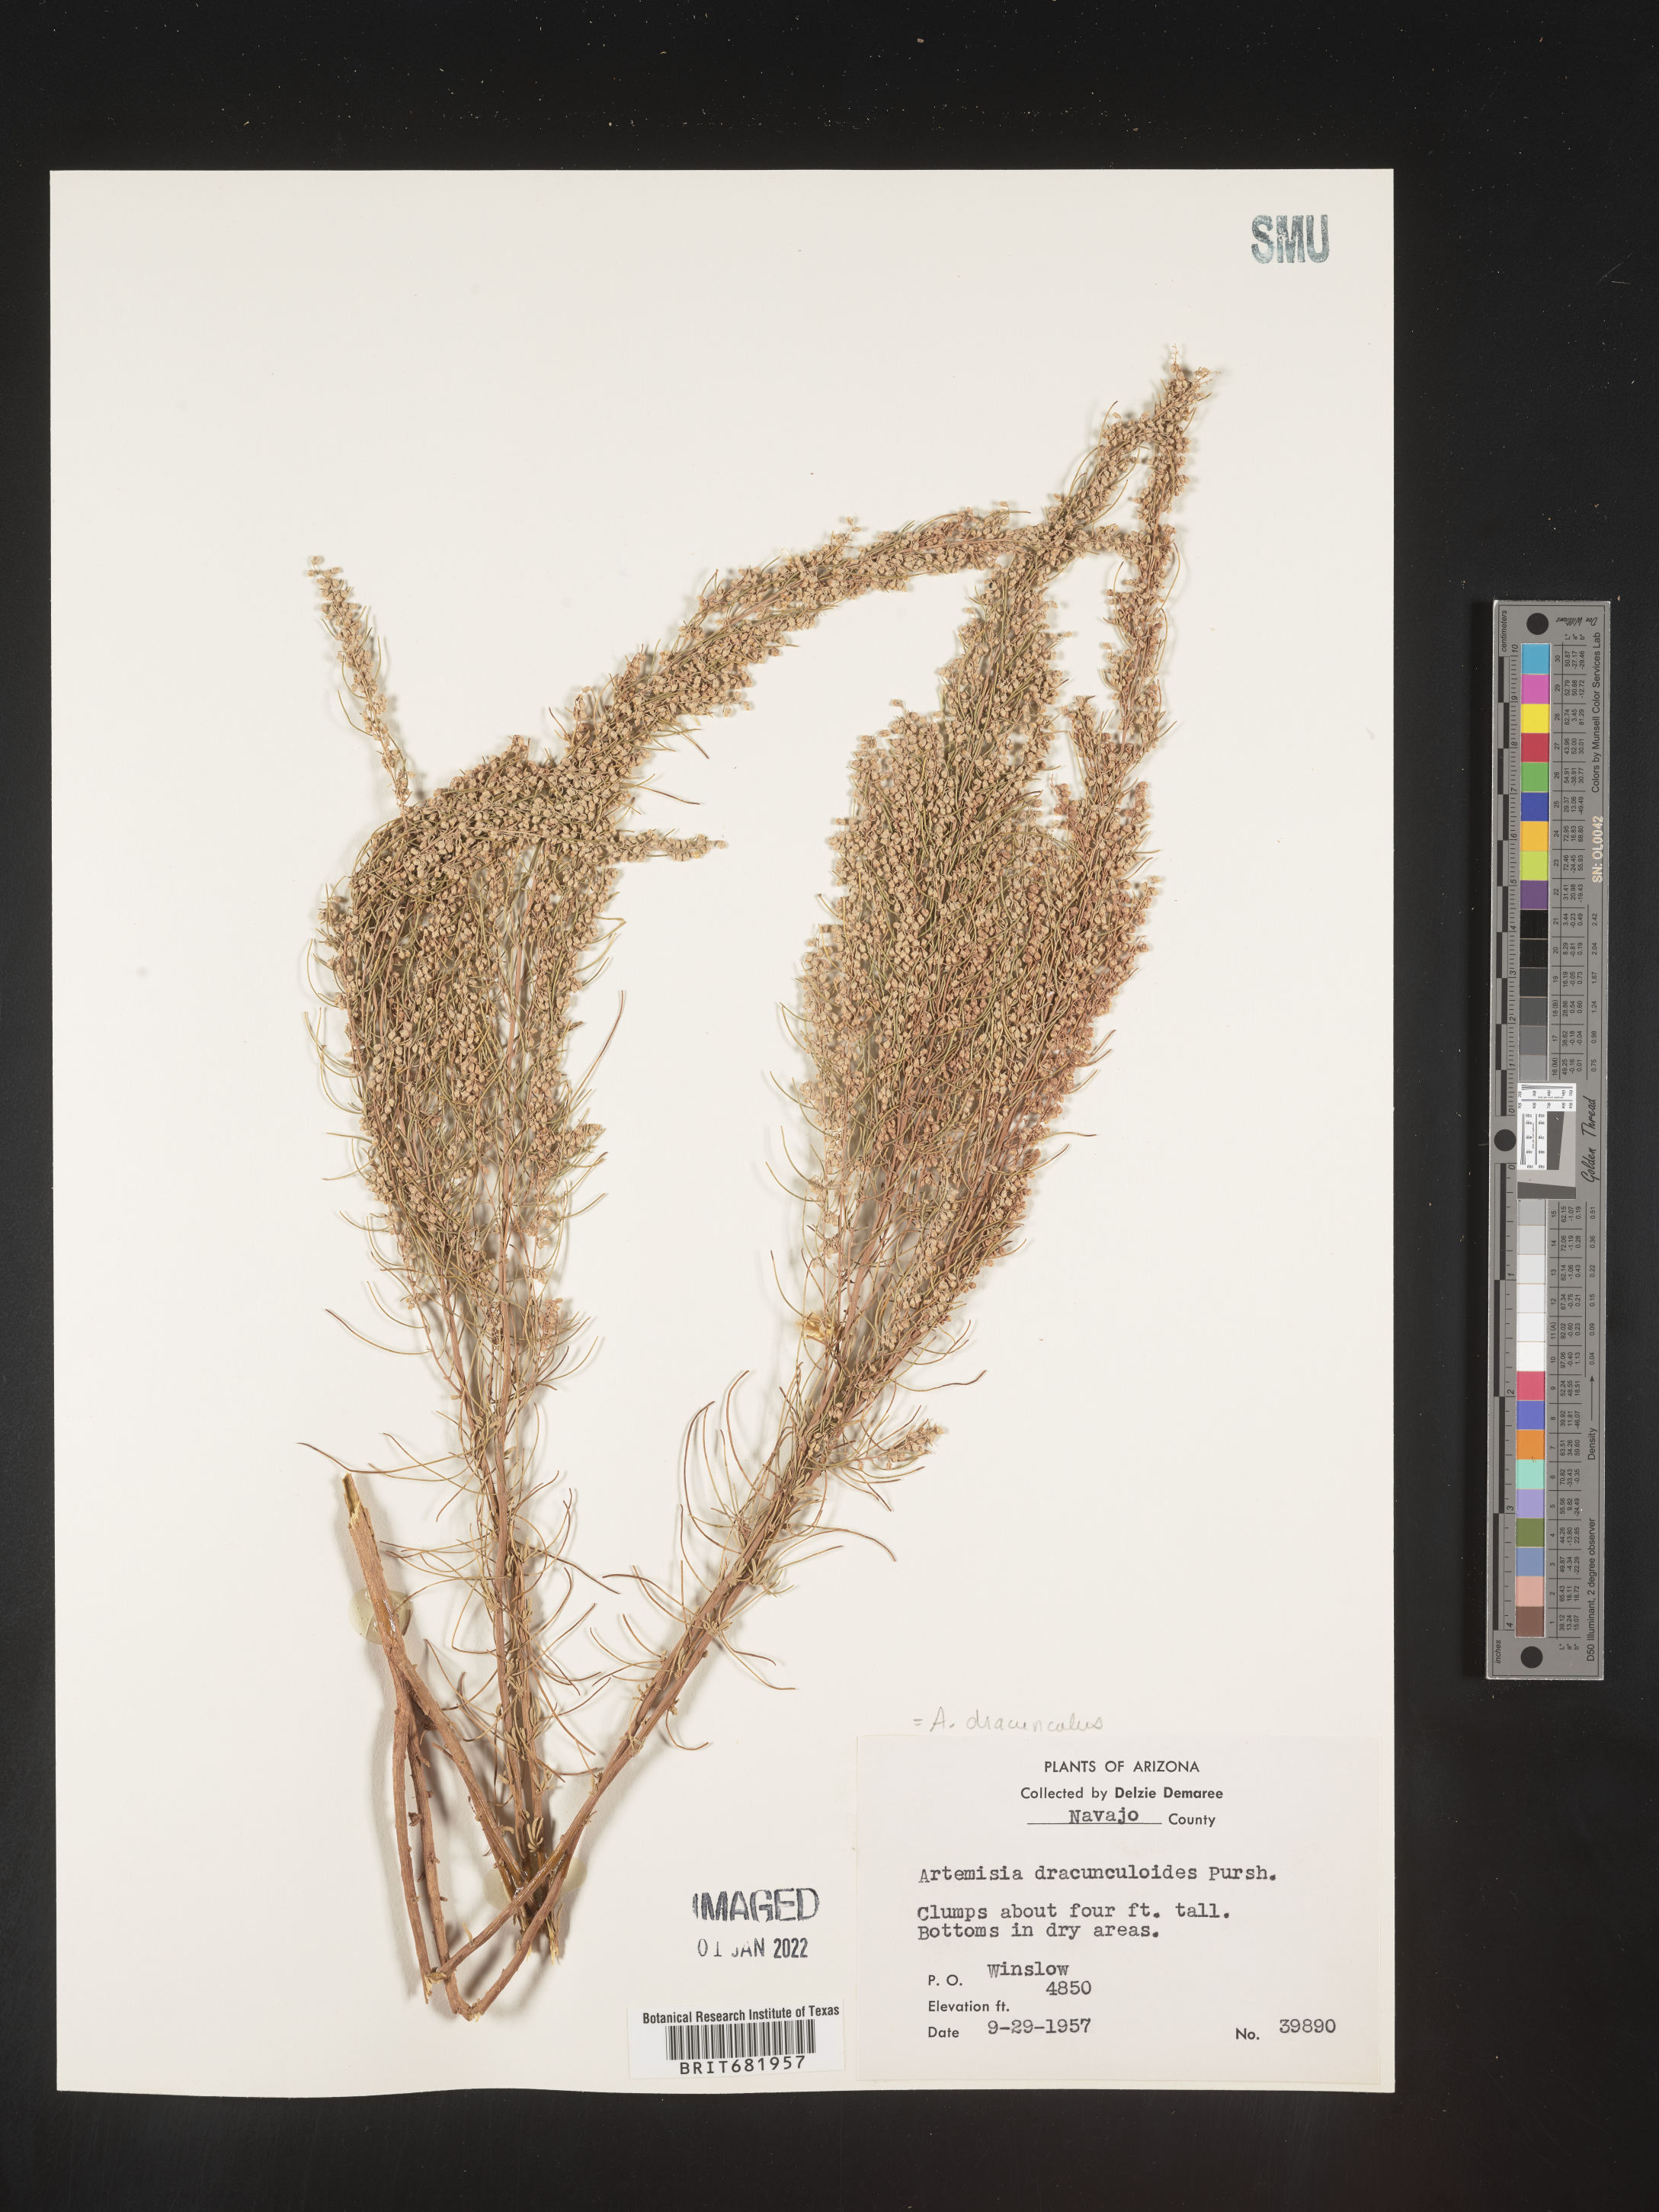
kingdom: Plantae
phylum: Tracheophyta
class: Magnoliopsida
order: Asterales
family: Asteraceae
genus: Artemisia
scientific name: Artemisia dracunculus
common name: Tarragon
